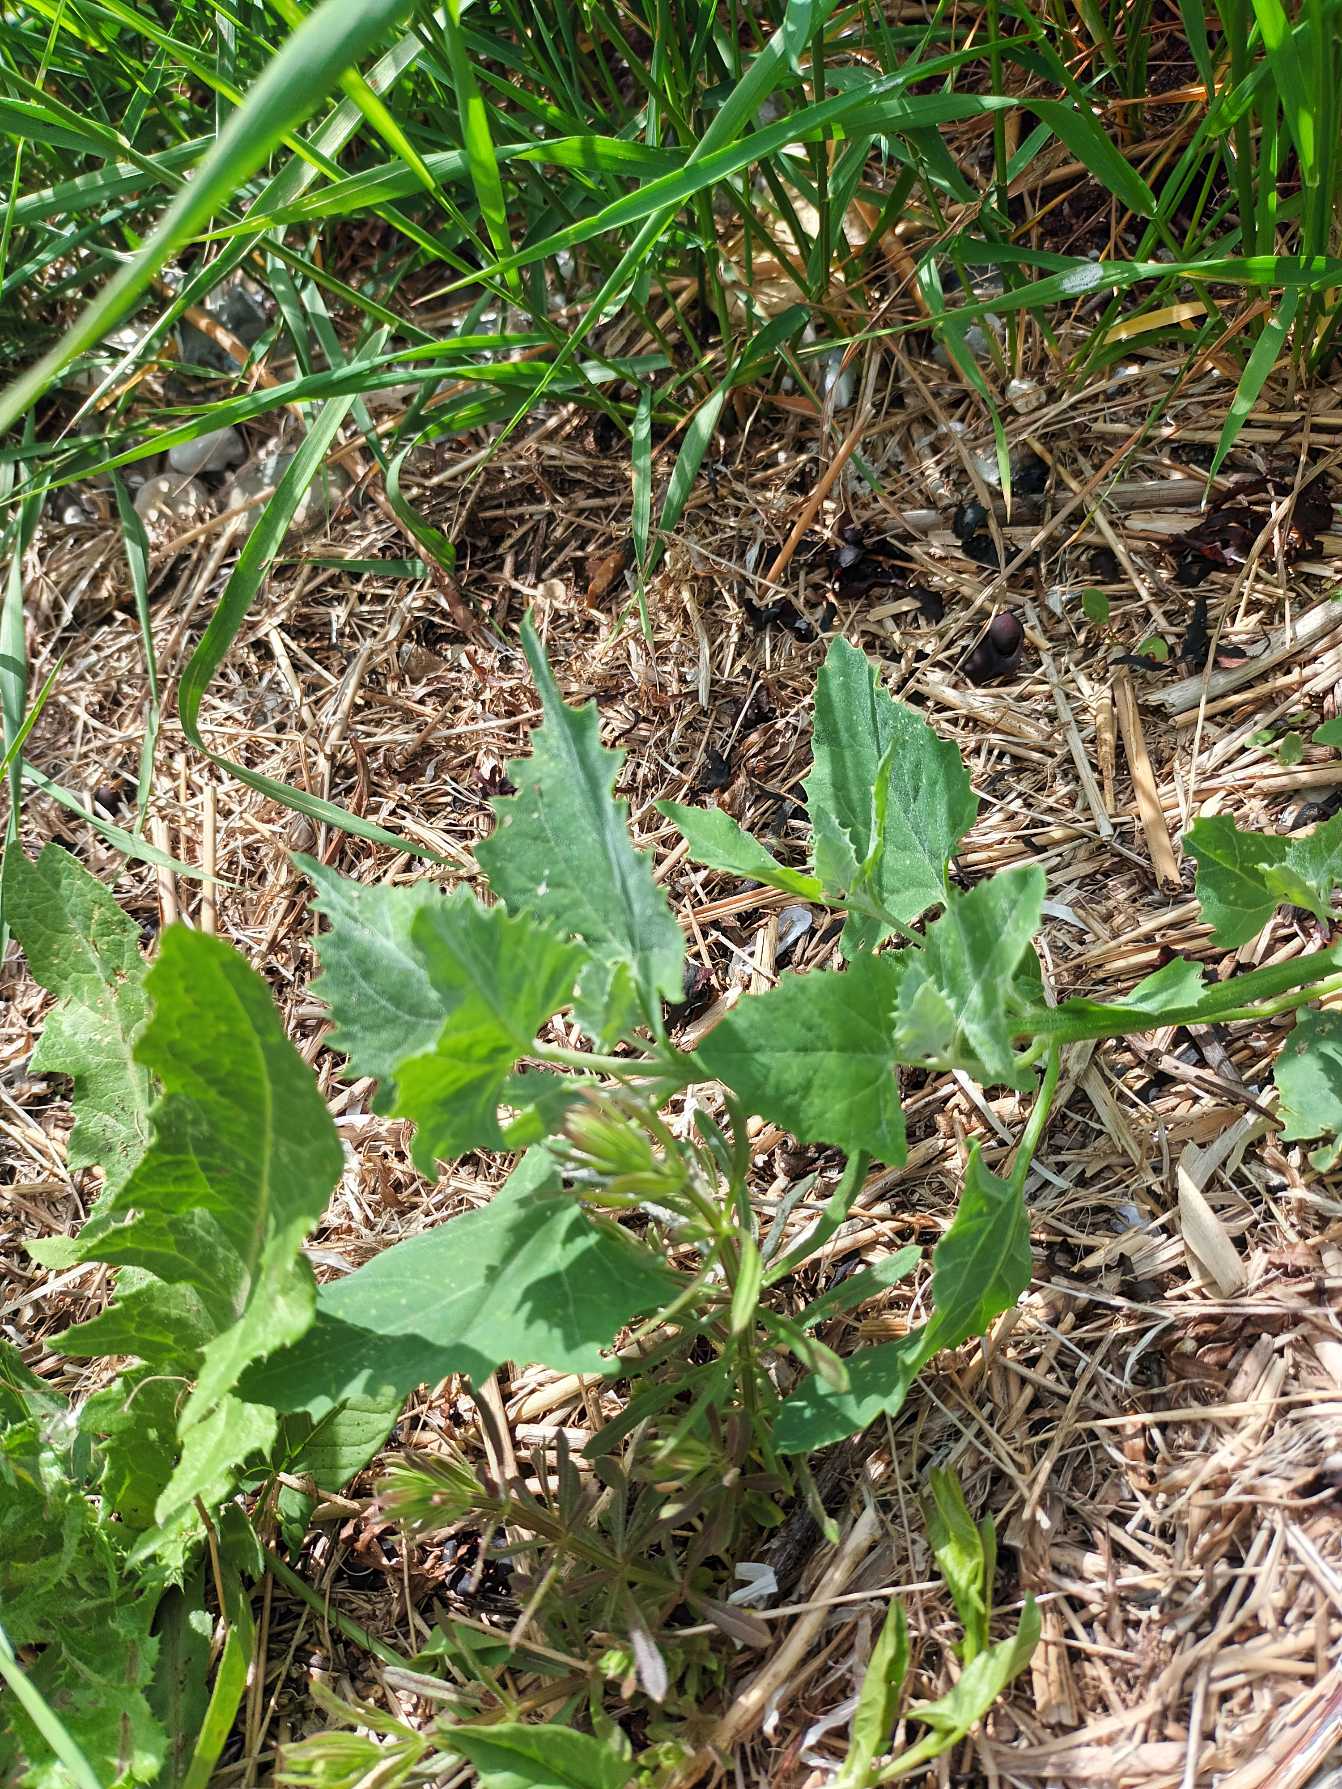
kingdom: Plantae
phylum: Tracheophyta
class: Magnoliopsida
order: Caryophyllales
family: Amaranthaceae
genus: Atriplex
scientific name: Atriplex prostrata
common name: Spyd-mælde
